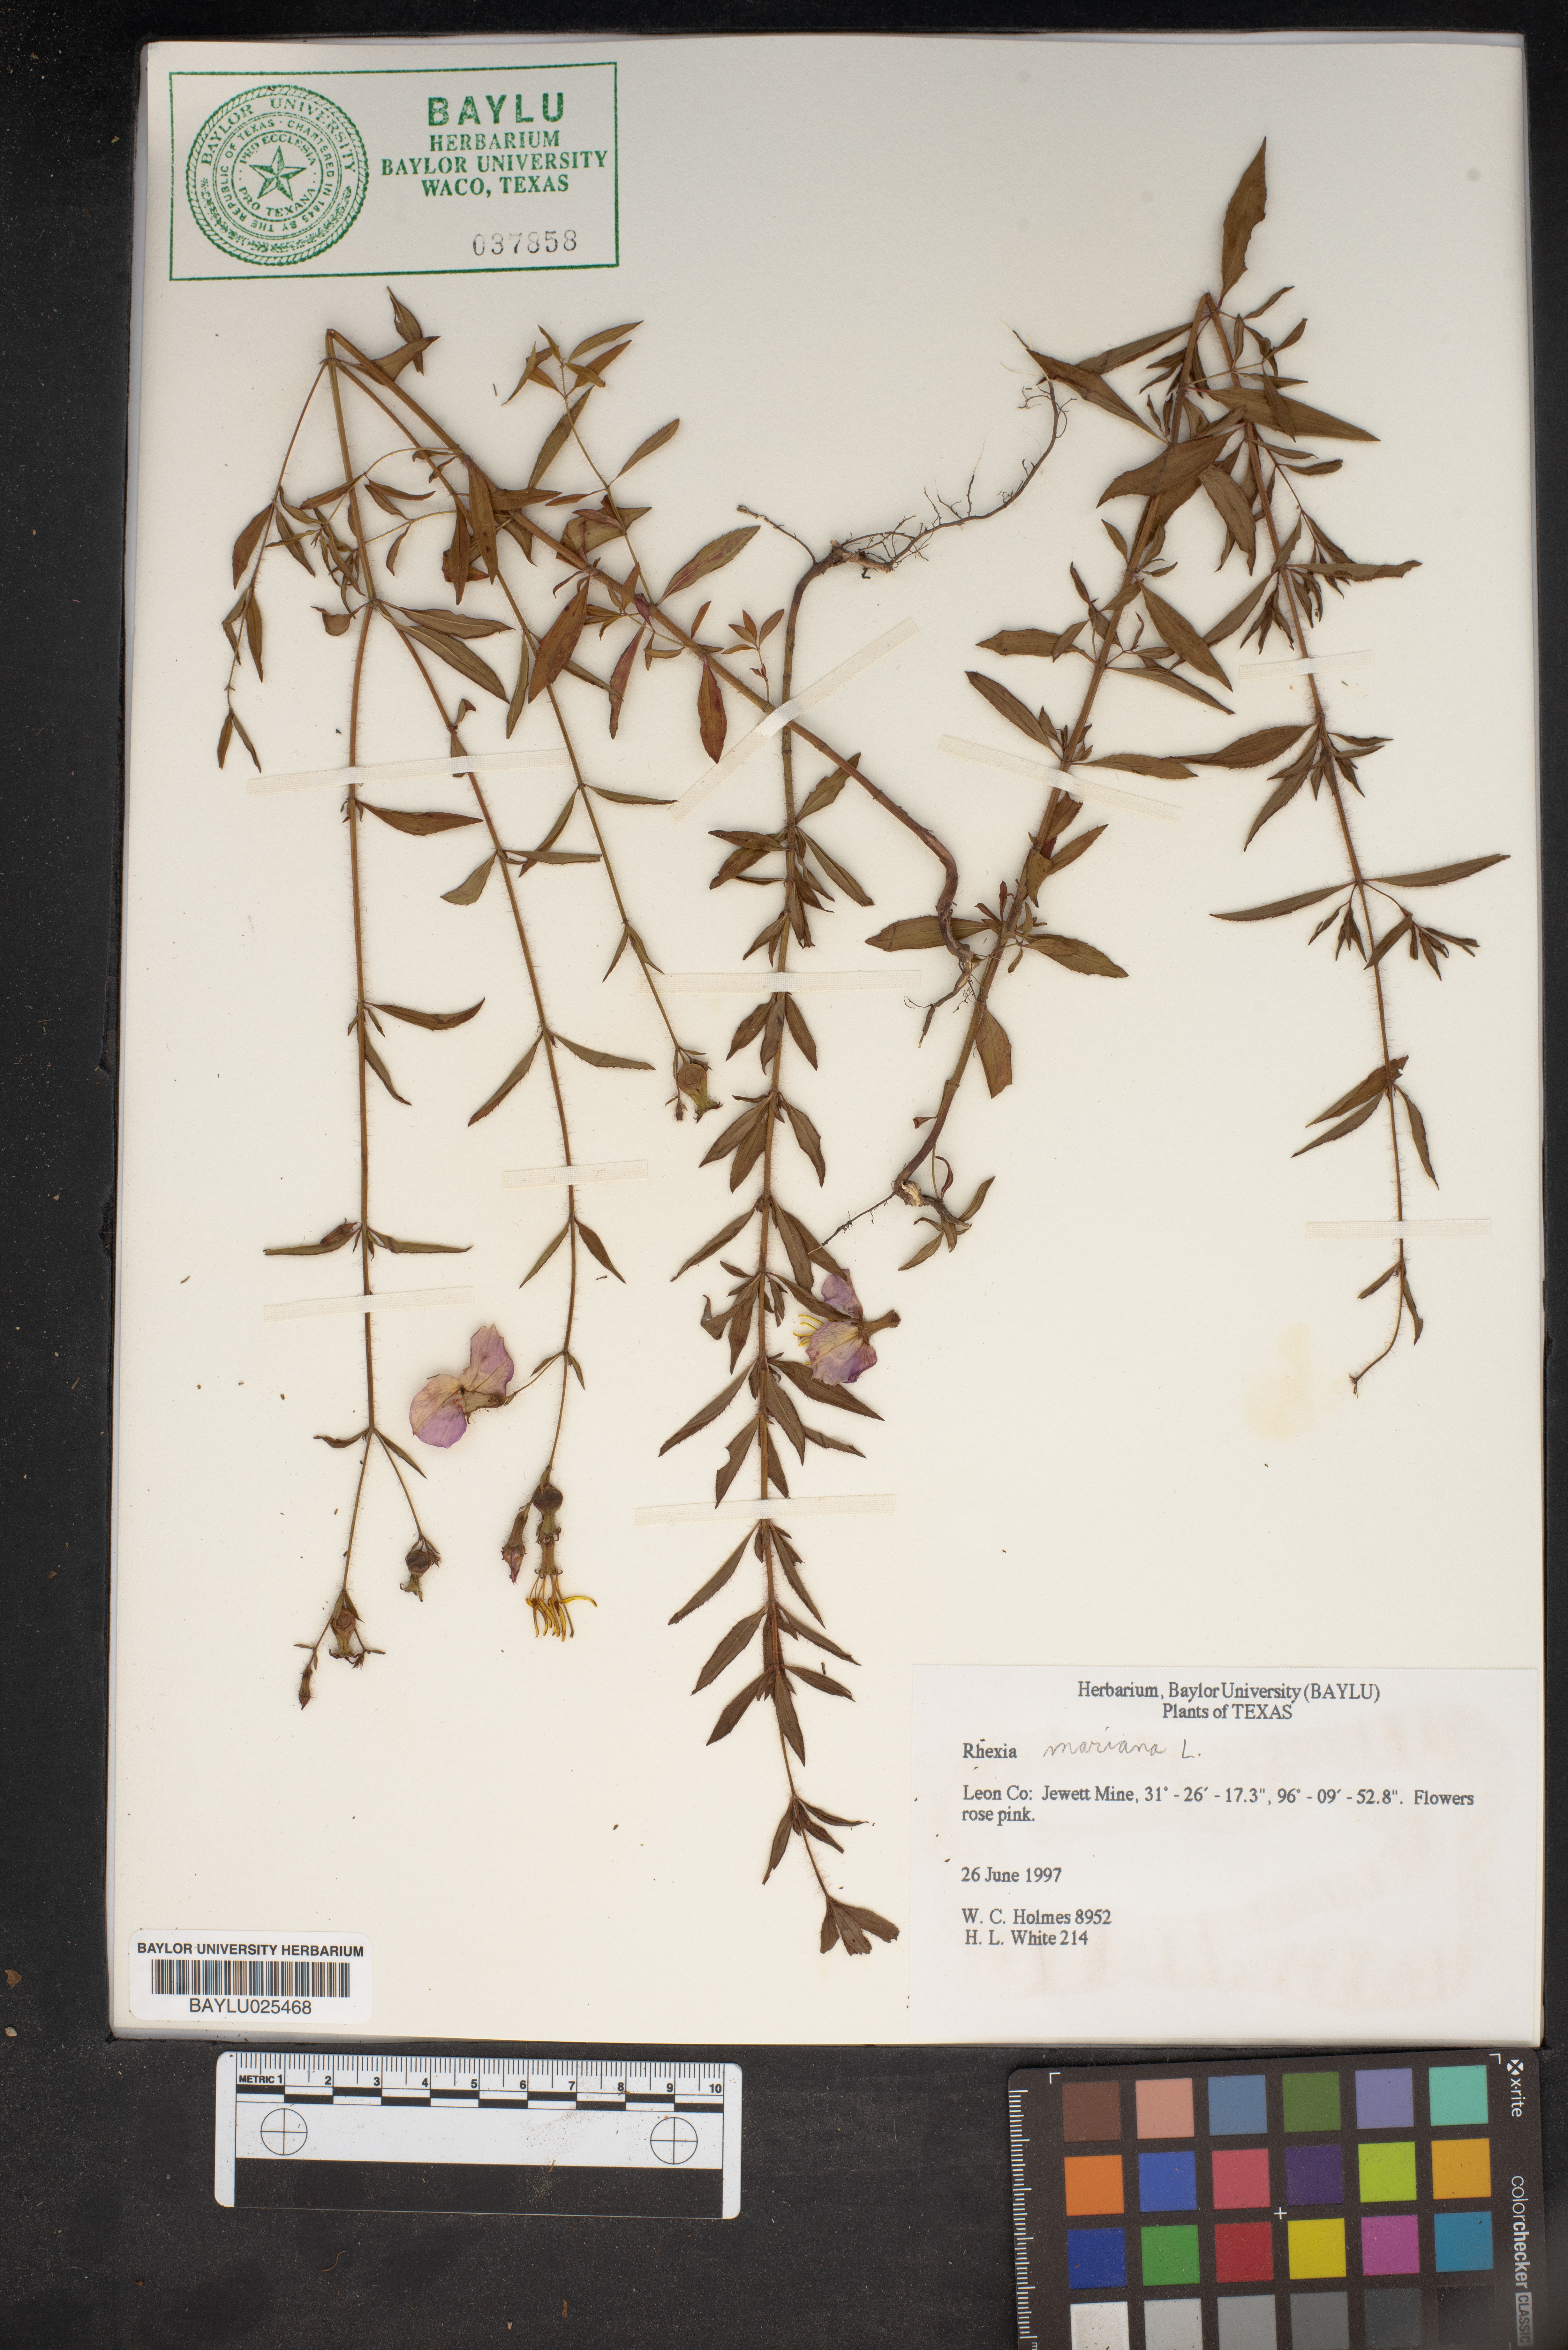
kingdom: Plantae
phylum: Tracheophyta
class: Magnoliopsida
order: Myrtales
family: Melastomataceae
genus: Rhexia
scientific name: Rhexia mariana
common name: Dull meadow-pitcher
